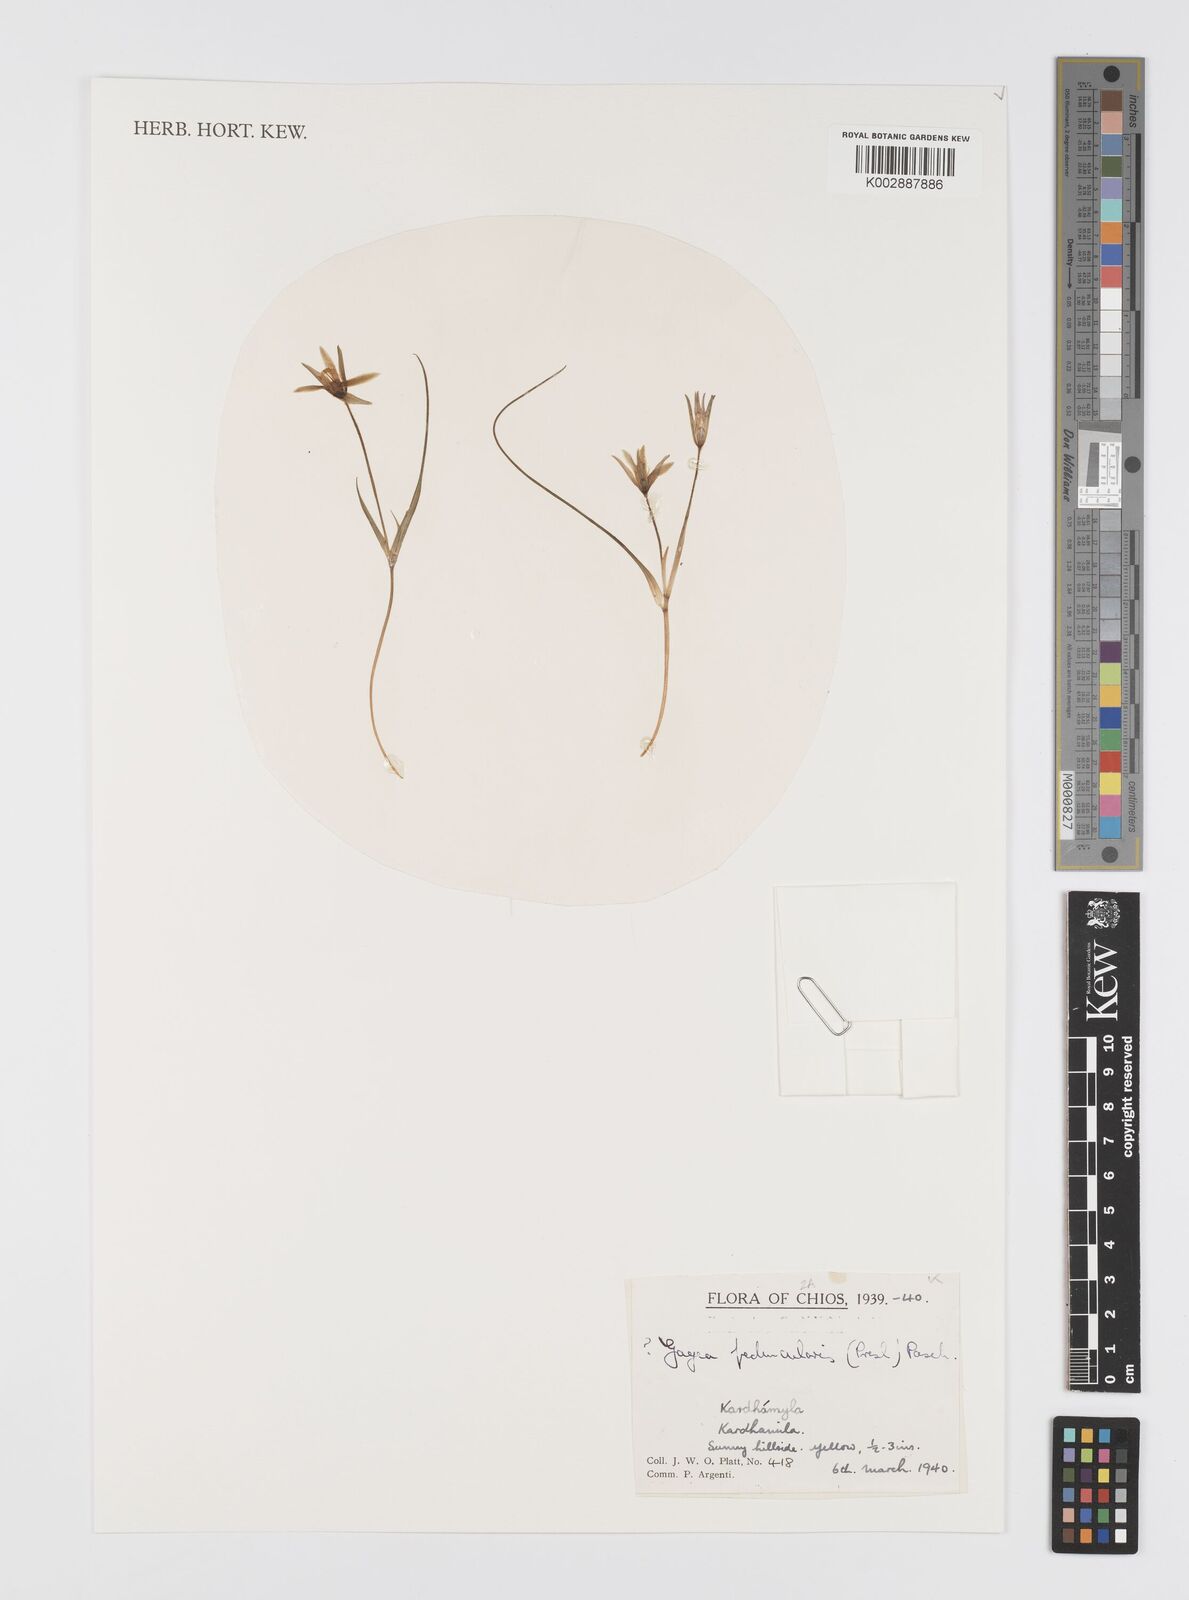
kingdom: Plantae
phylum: Tracheophyta
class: Liliopsida
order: Liliales
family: Liliaceae
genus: Gagea
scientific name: Gagea peduncularis
